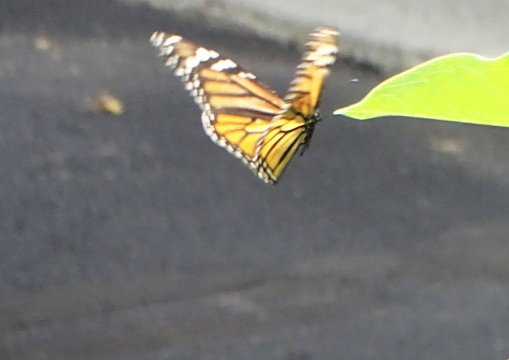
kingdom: Animalia
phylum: Arthropoda
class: Insecta
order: Lepidoptera
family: Nymphalidae
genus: Danaus
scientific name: Danaus plexippus
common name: Monarch
